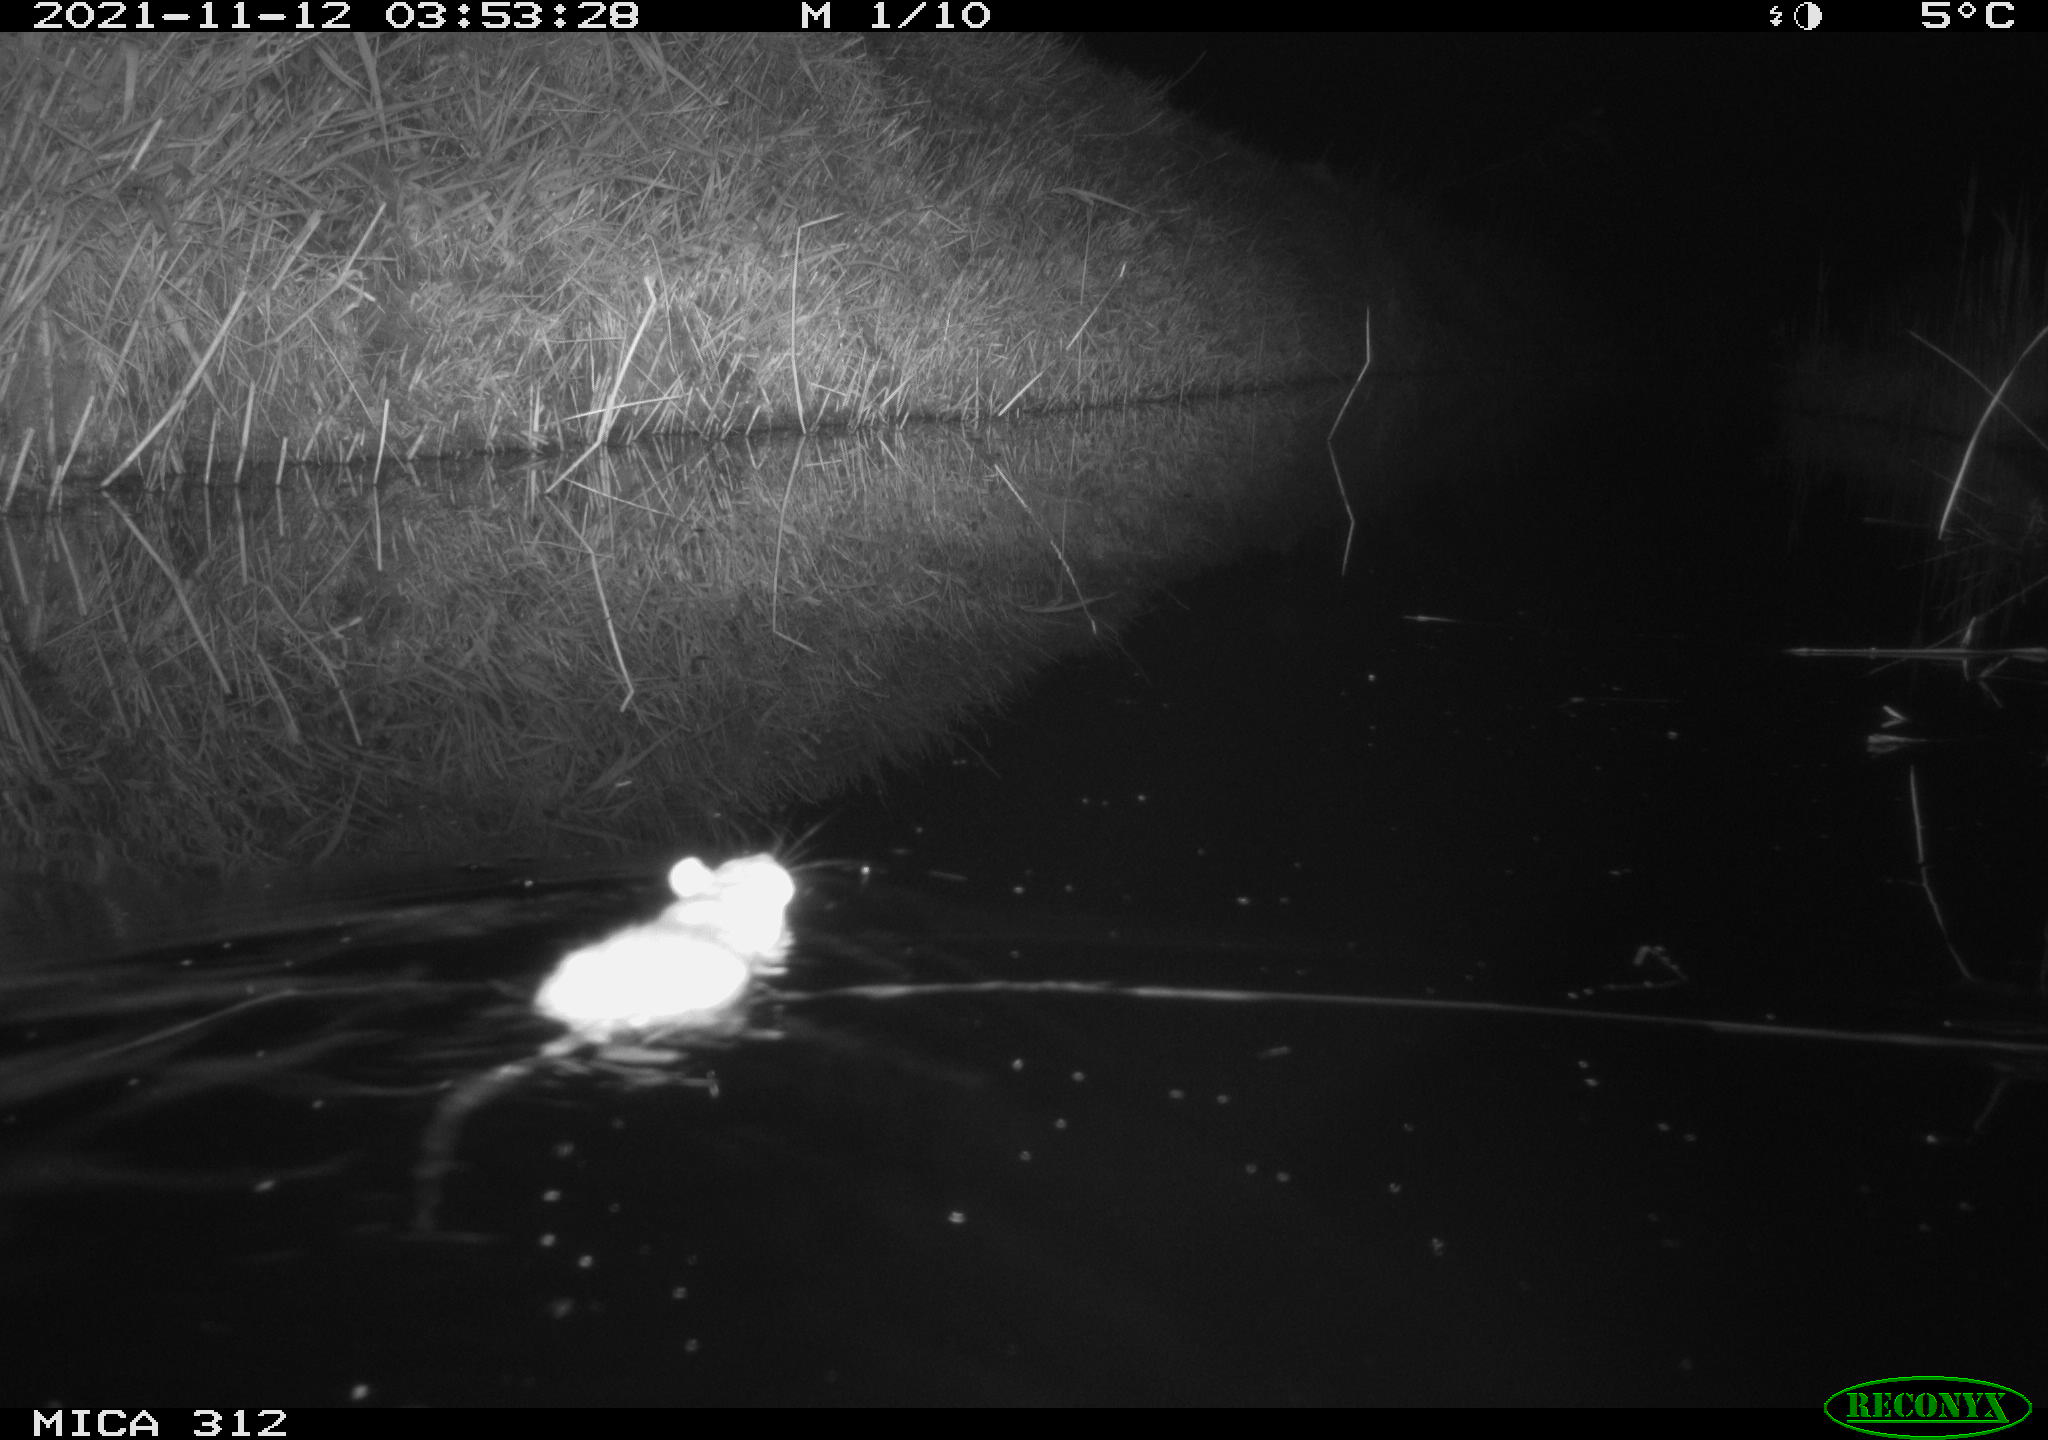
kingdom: Animalia
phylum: Chordata
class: Mammalia
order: Rodentia
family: Muridae
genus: Rattus
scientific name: Rattus norvegicus
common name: Brown rat
